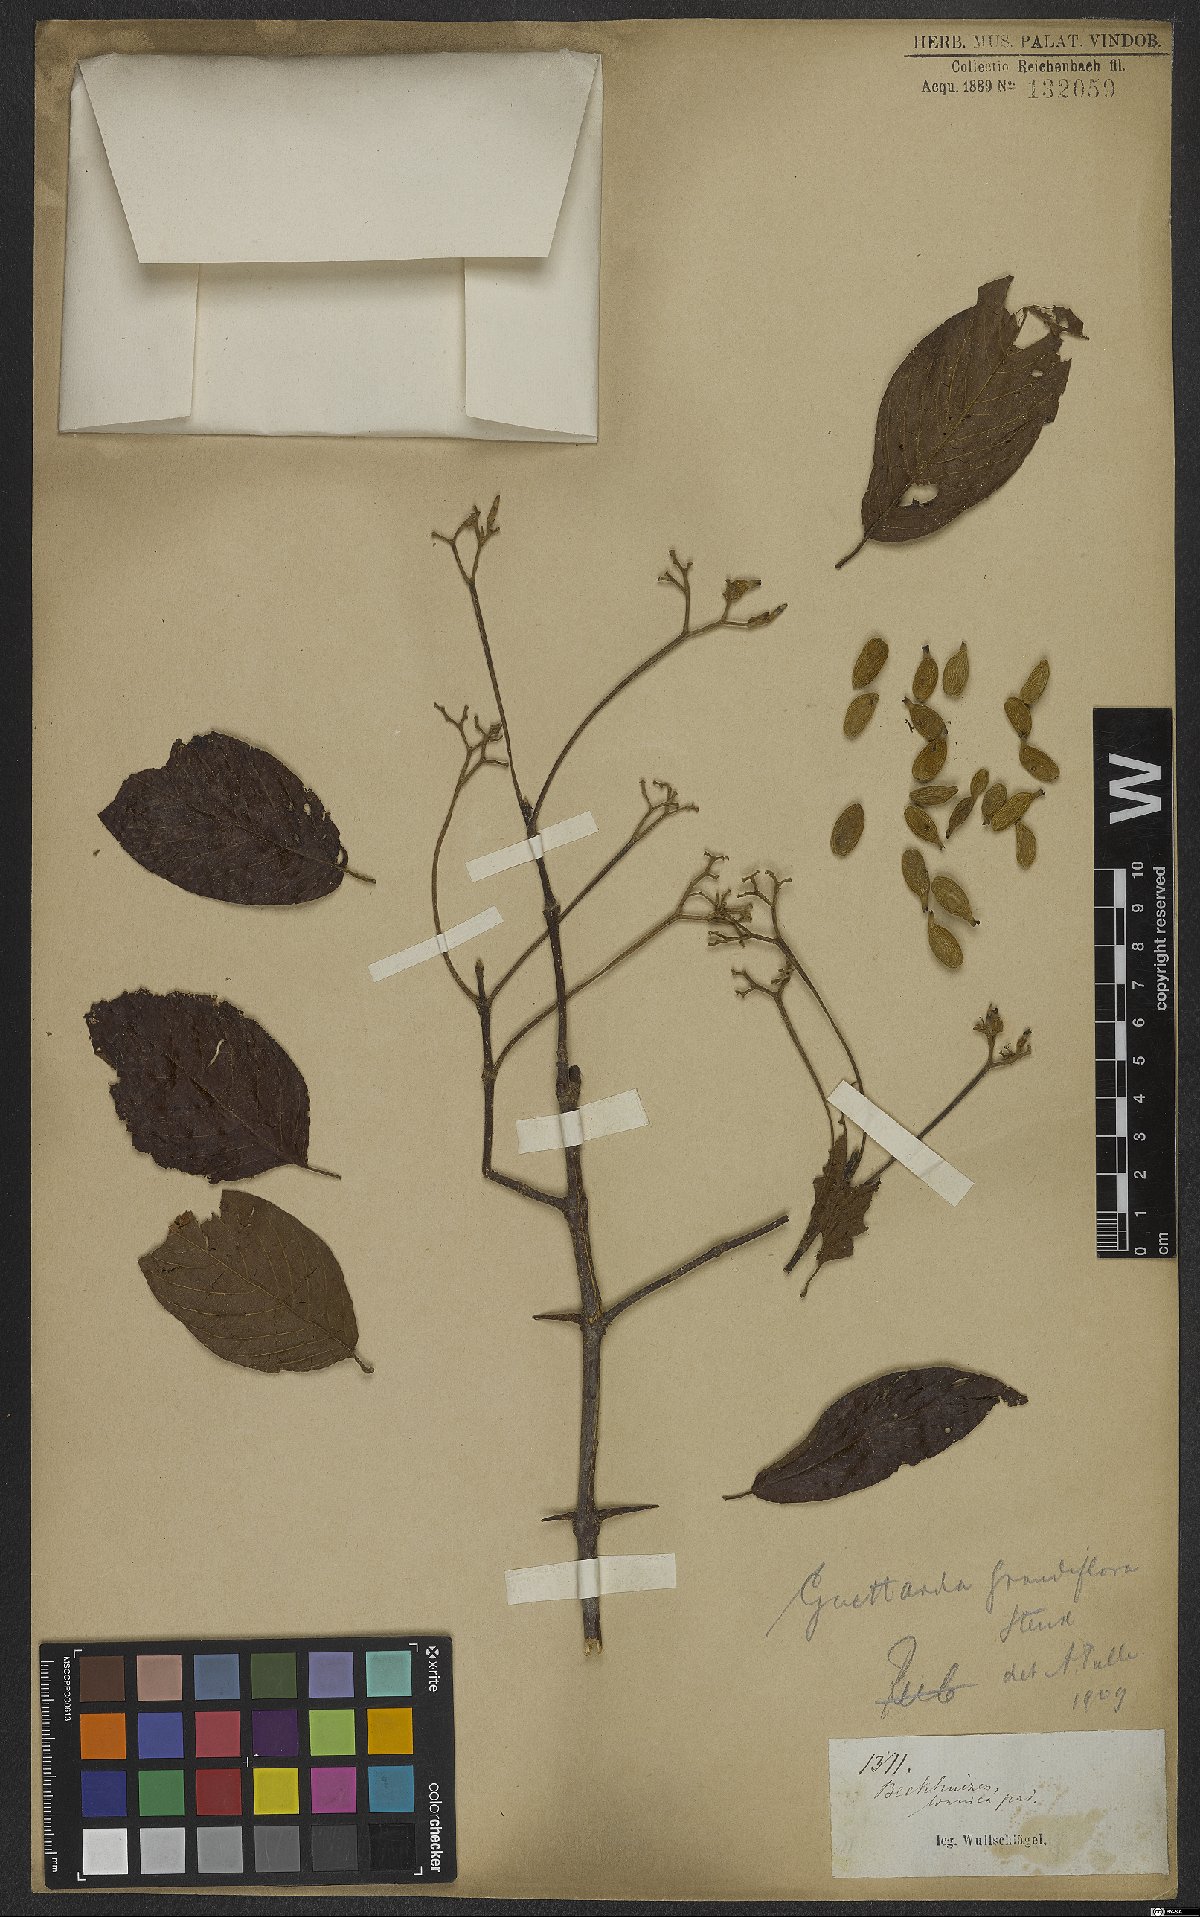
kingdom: Plantae
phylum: Tracheophyta
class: Magnoliopsida
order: Gentianales
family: Rubiaceae
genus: Guettarda
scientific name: Guettarda aromatica
